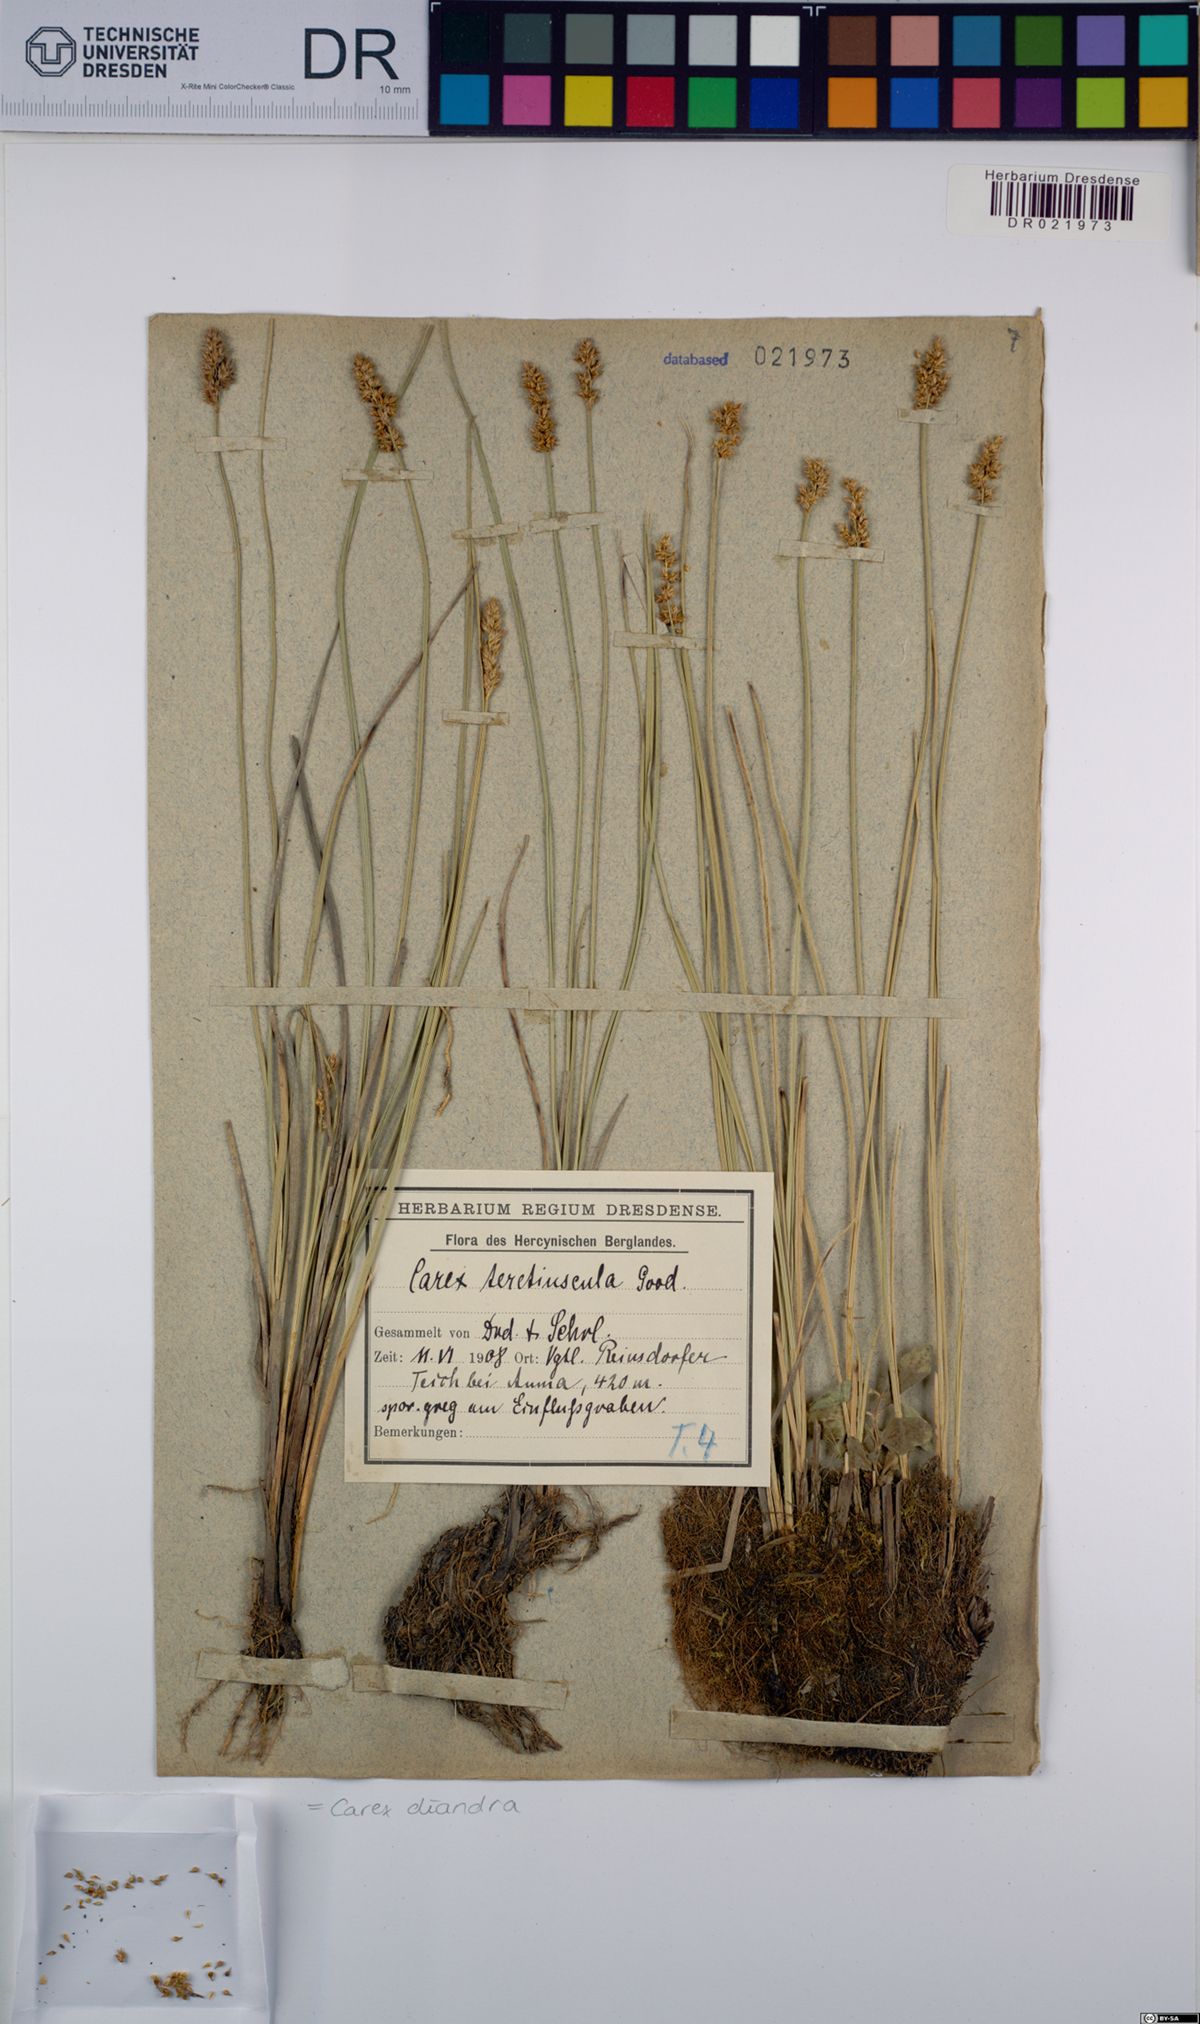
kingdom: Plantae
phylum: Tracheophyta
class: Liliopsida
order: Poales
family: Cyperaceae
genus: Carex
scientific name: Carex diandra
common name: Lesser tussock-sedge
